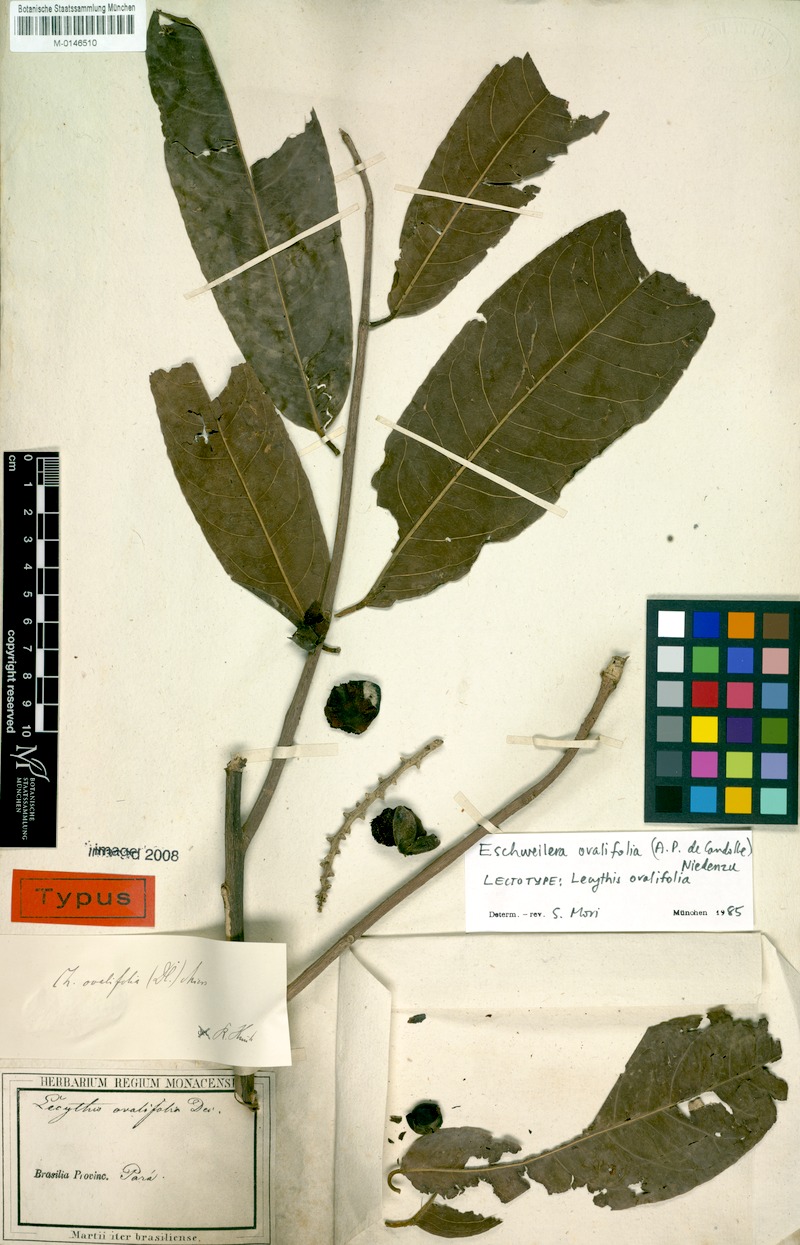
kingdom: Plantae
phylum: Tracheophyta
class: Magnoliopsida
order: Ericales
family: Lecythidaceae
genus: Eschweilera
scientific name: Eschweilera ovalifolia
